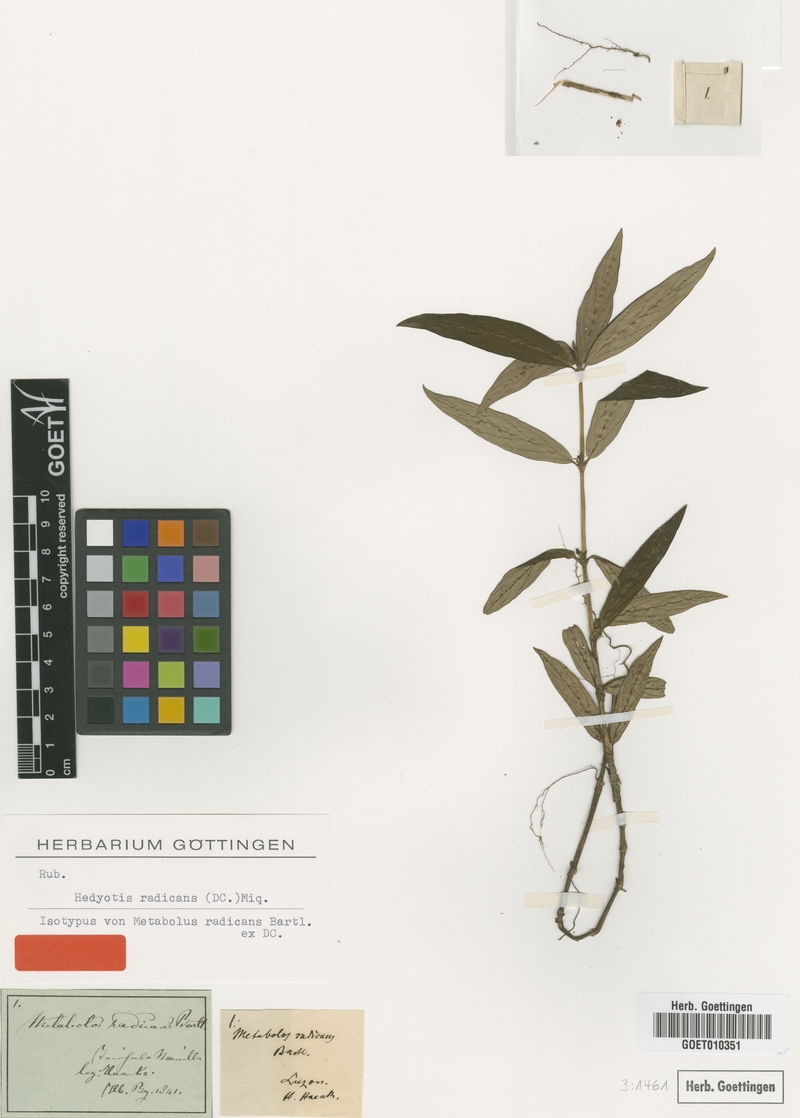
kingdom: Plantae
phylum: Tracheophyta
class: Magnoliopsida
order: Gentianales
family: Rubiaceae
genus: Exallage
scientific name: Exallage radicans
